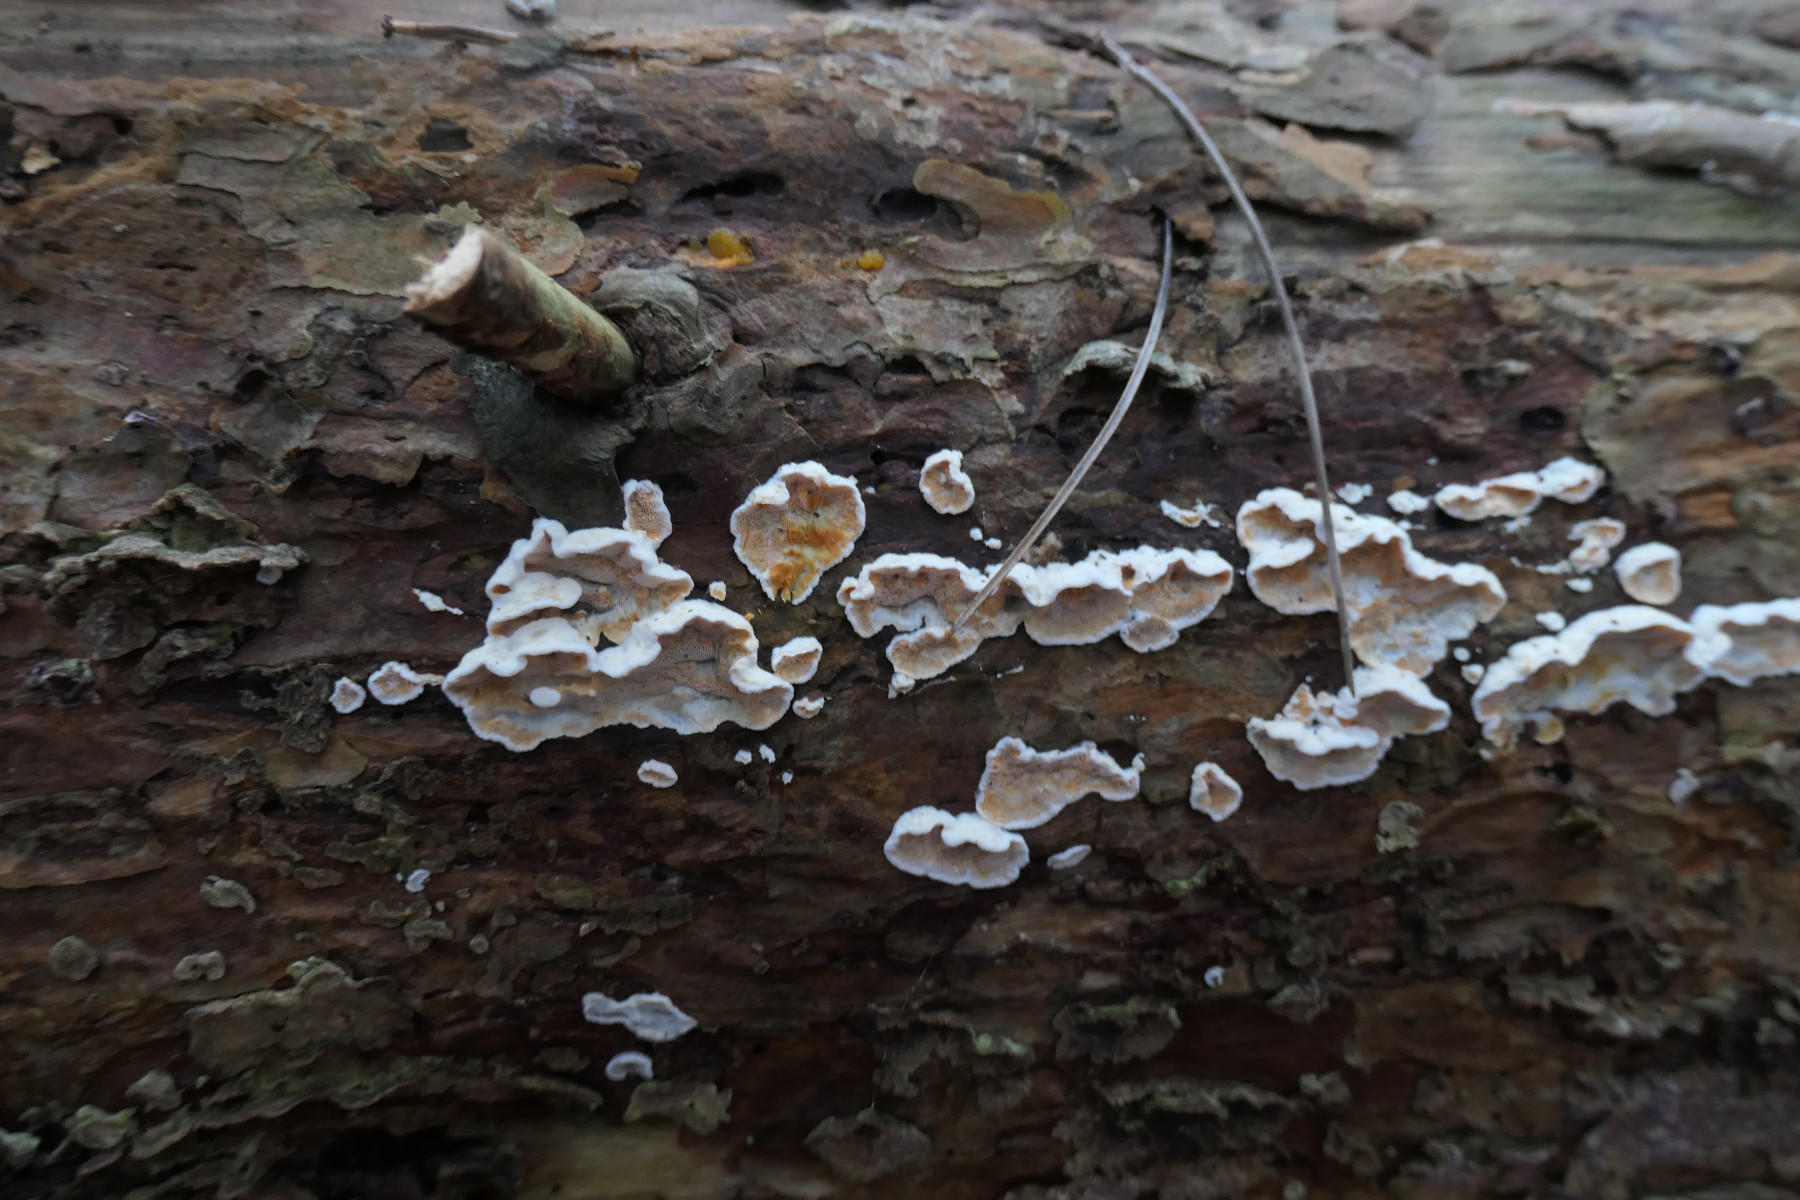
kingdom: Fungi
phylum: Basidiomycota
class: Agaricomycetes
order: Russulales
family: Stereaceae
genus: Stereum
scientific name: Stereum sanguinolentum
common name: blødende lædersvamp
